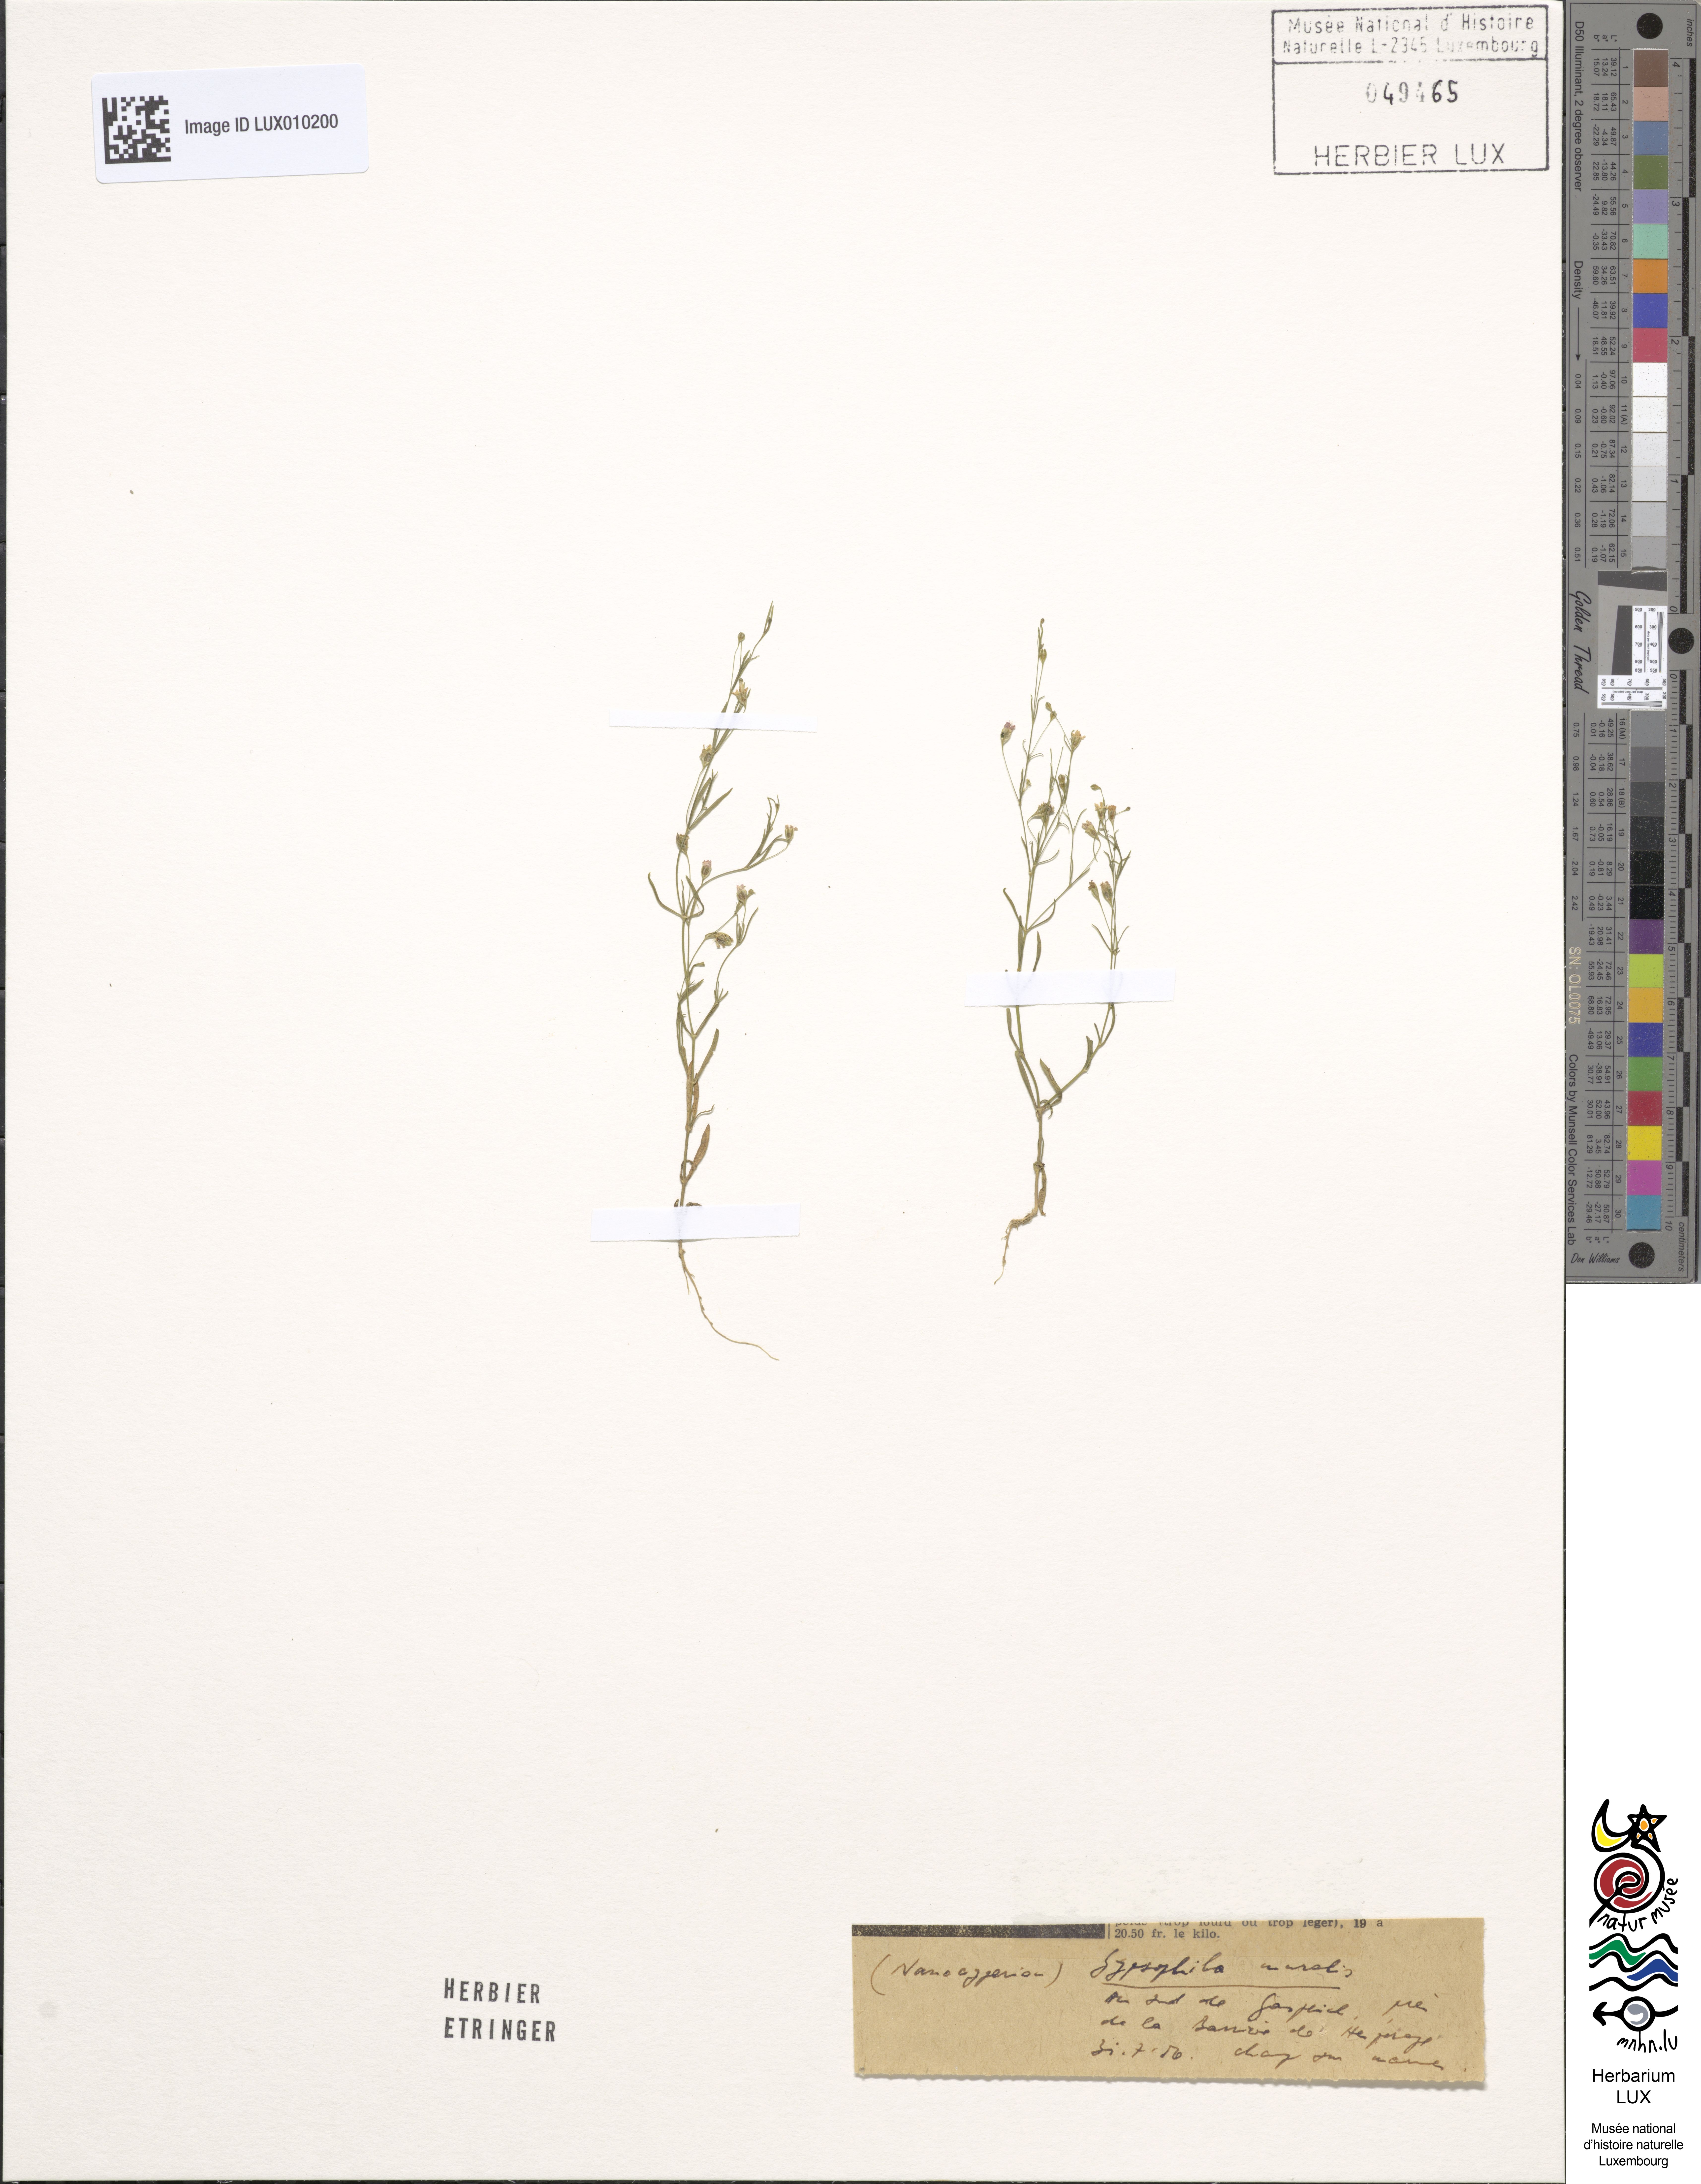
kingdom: Plantae
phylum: Tracheophyta
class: Magnoliopsida
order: Caryophyllales
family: Caryophyllaceae
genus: Psammophiliella
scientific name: Psammophiliella muralis
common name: Cushion baby's-breath
